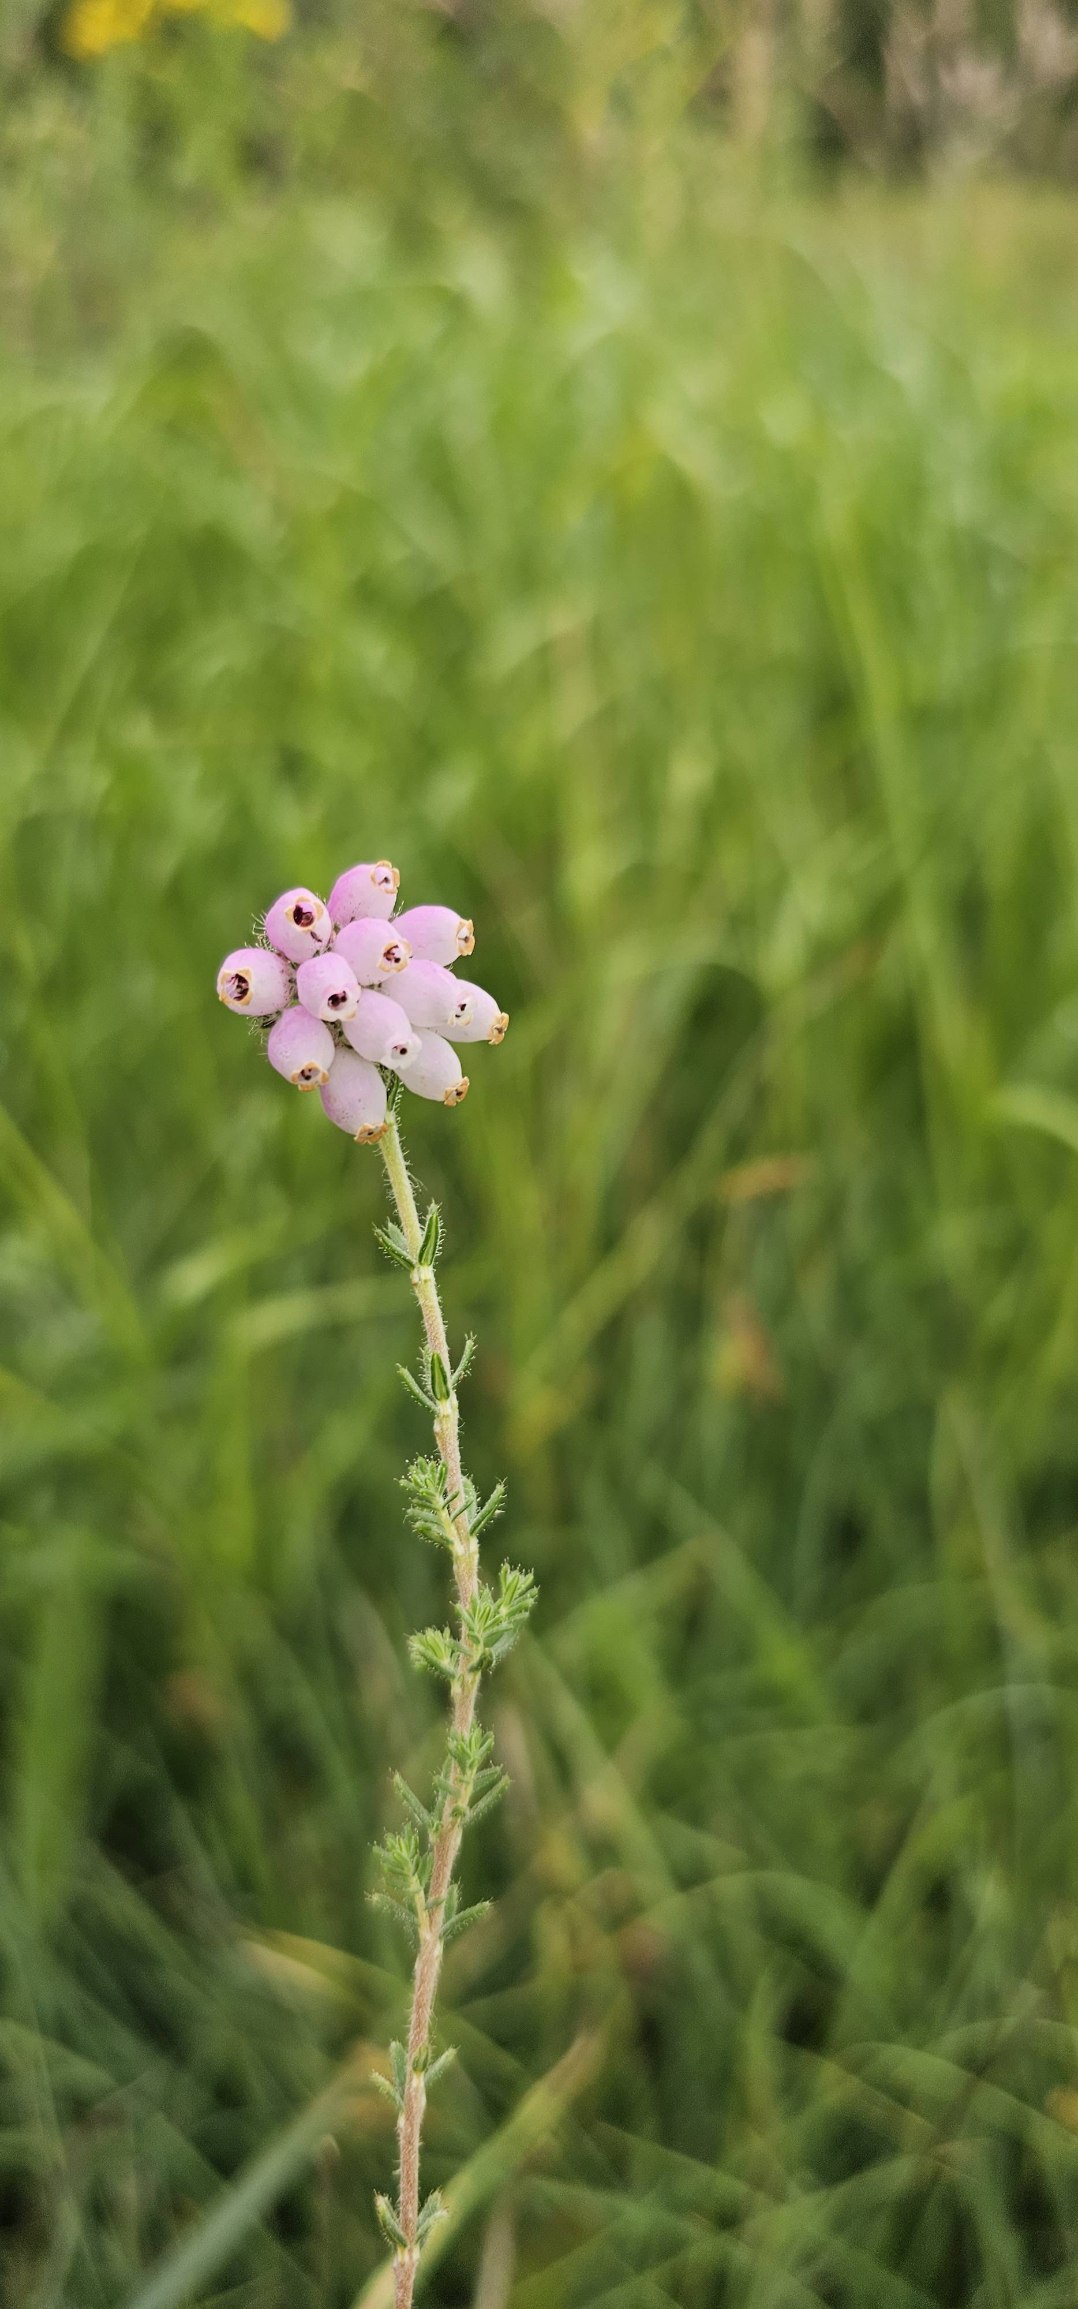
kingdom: Plantae
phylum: Tracheophyta
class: Magnoliopsida
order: Ericales
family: Ericaceae
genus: Erica
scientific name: Erica tetralix
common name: Klokkelyng
